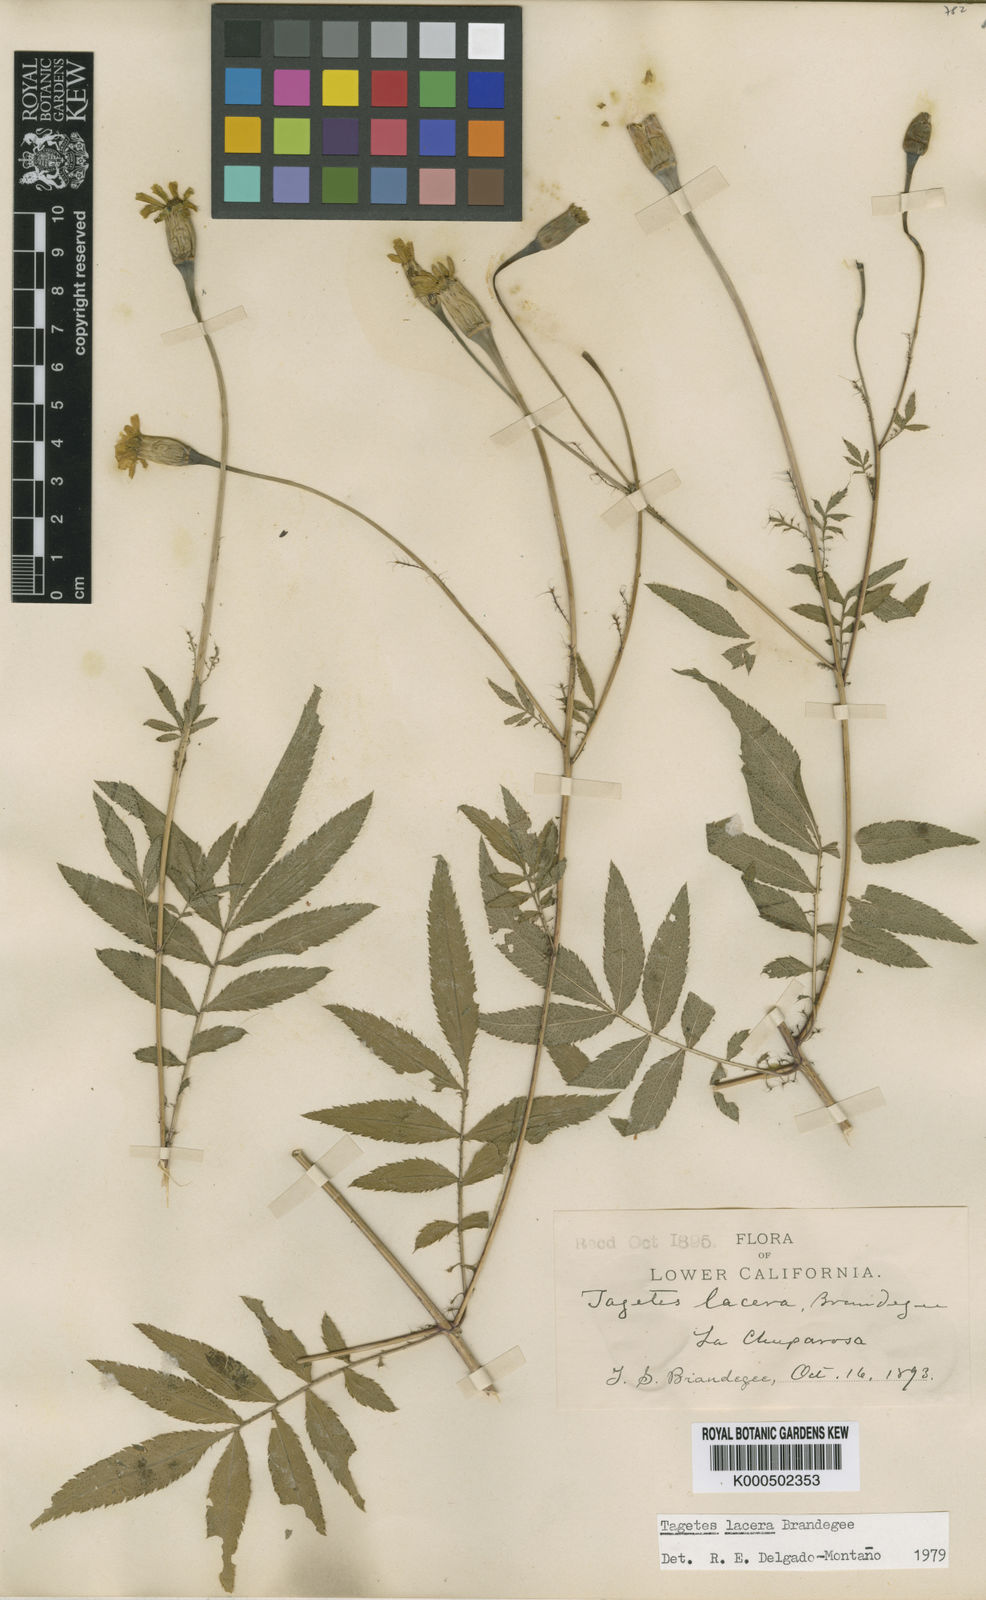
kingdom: Plantae
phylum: Tracheophyta
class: Magnoliopsida
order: Asterales
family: Asteraceae
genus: Tagetes
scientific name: Tagetes lacera
